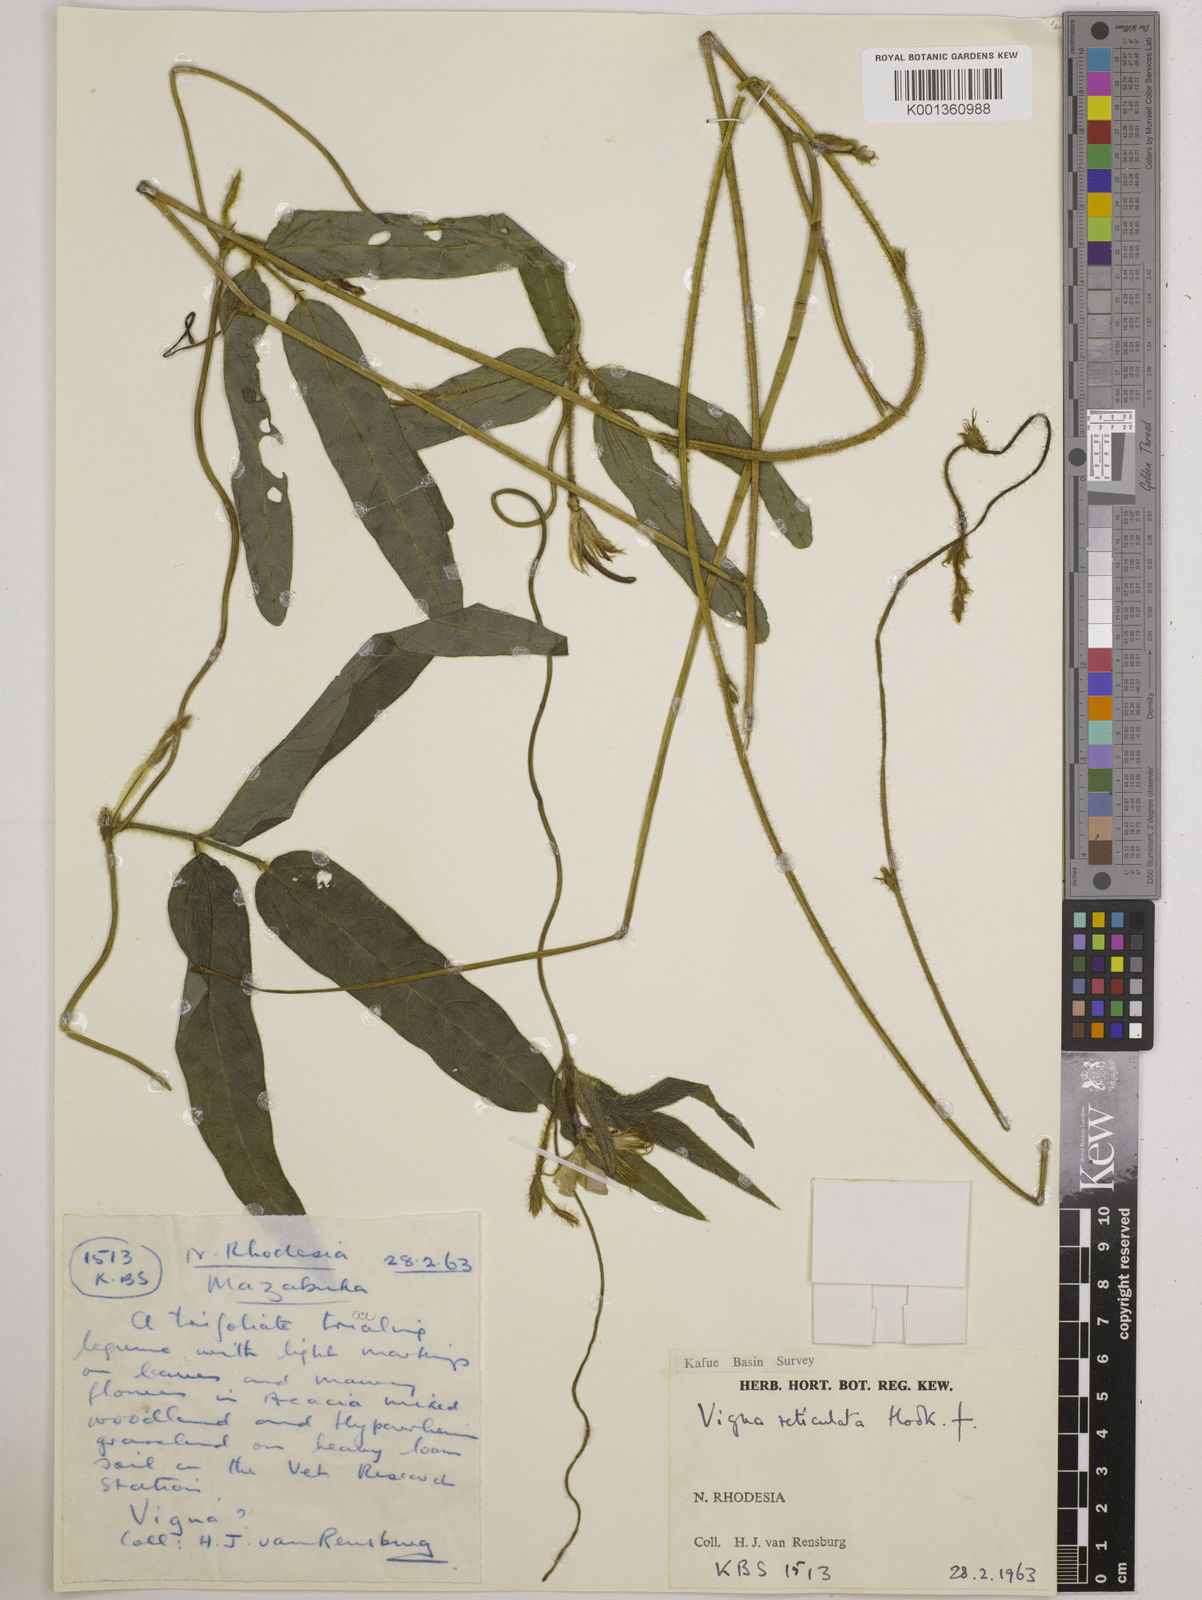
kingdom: Plantae
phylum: Tracheophyta
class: Magnoliopsida
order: Fabales
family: Fabaceae
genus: Vigna
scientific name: Vigna reticulata
